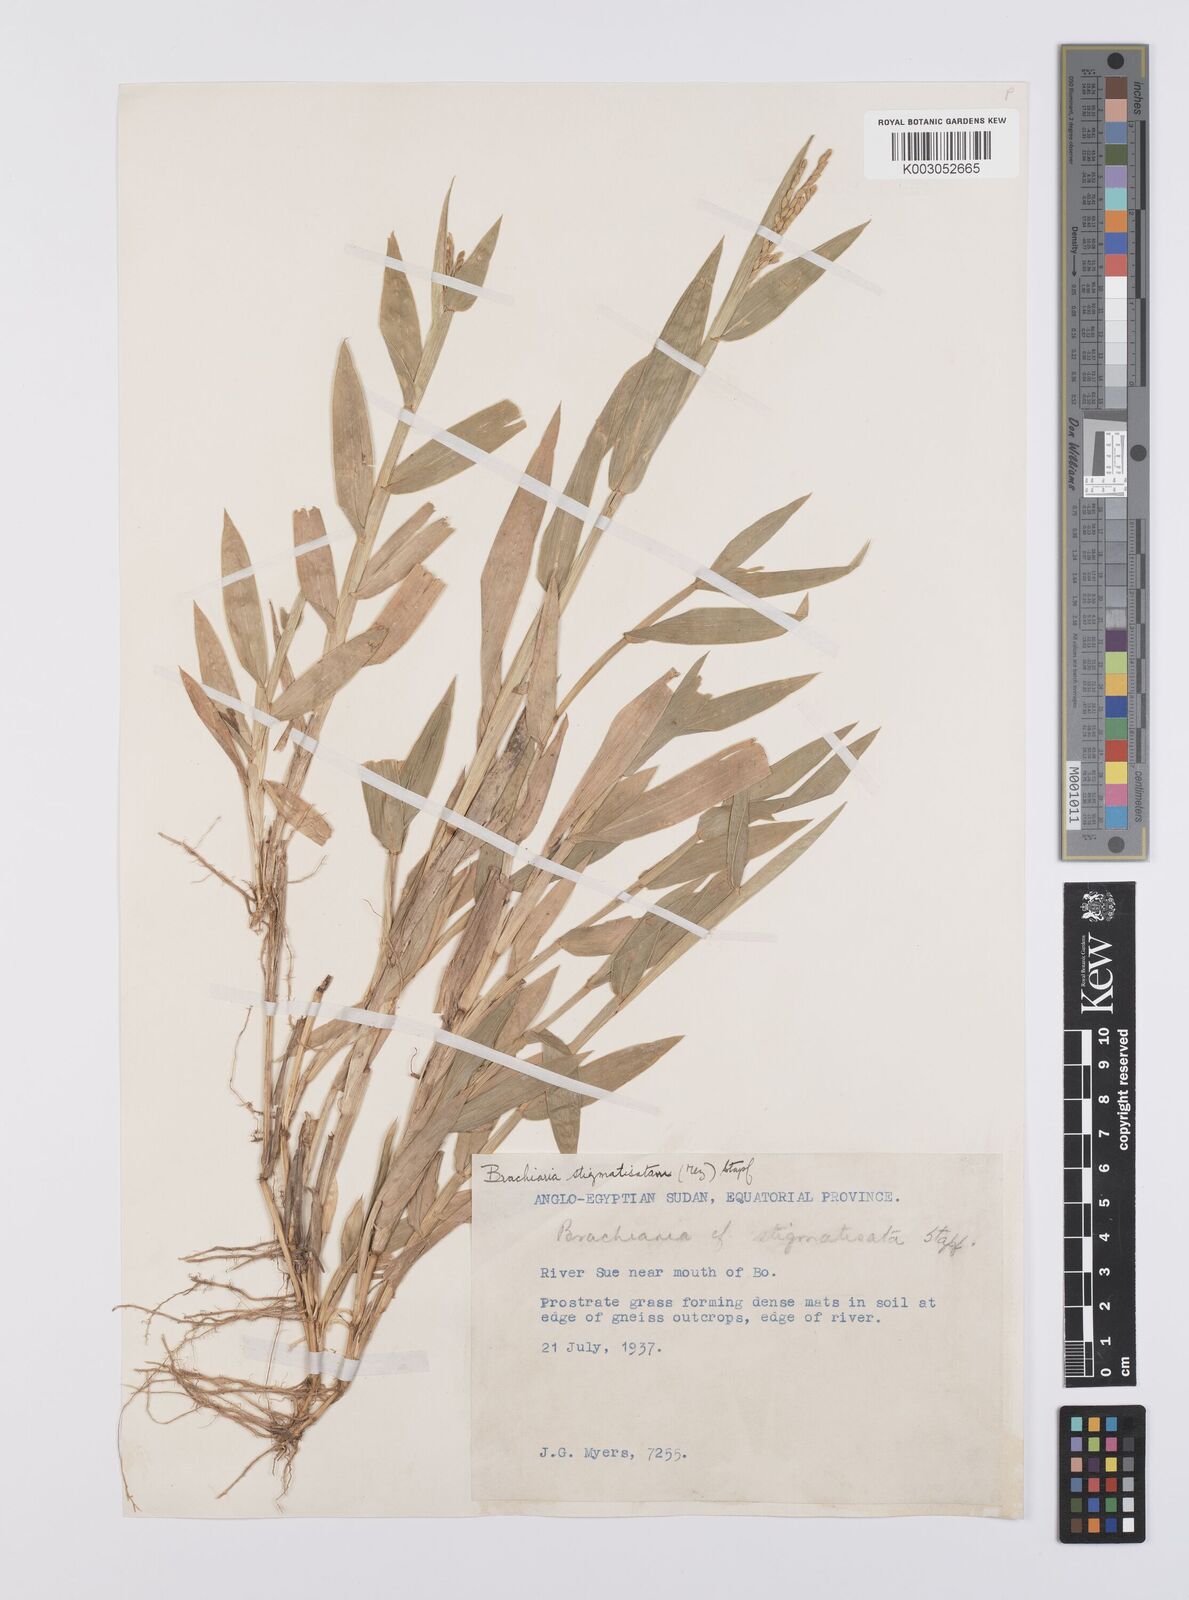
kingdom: Plantae
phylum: Tracheophyta
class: Liliopsida
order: Poales
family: Poaceae
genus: Urochloa
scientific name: Urochloa stigmatisata
